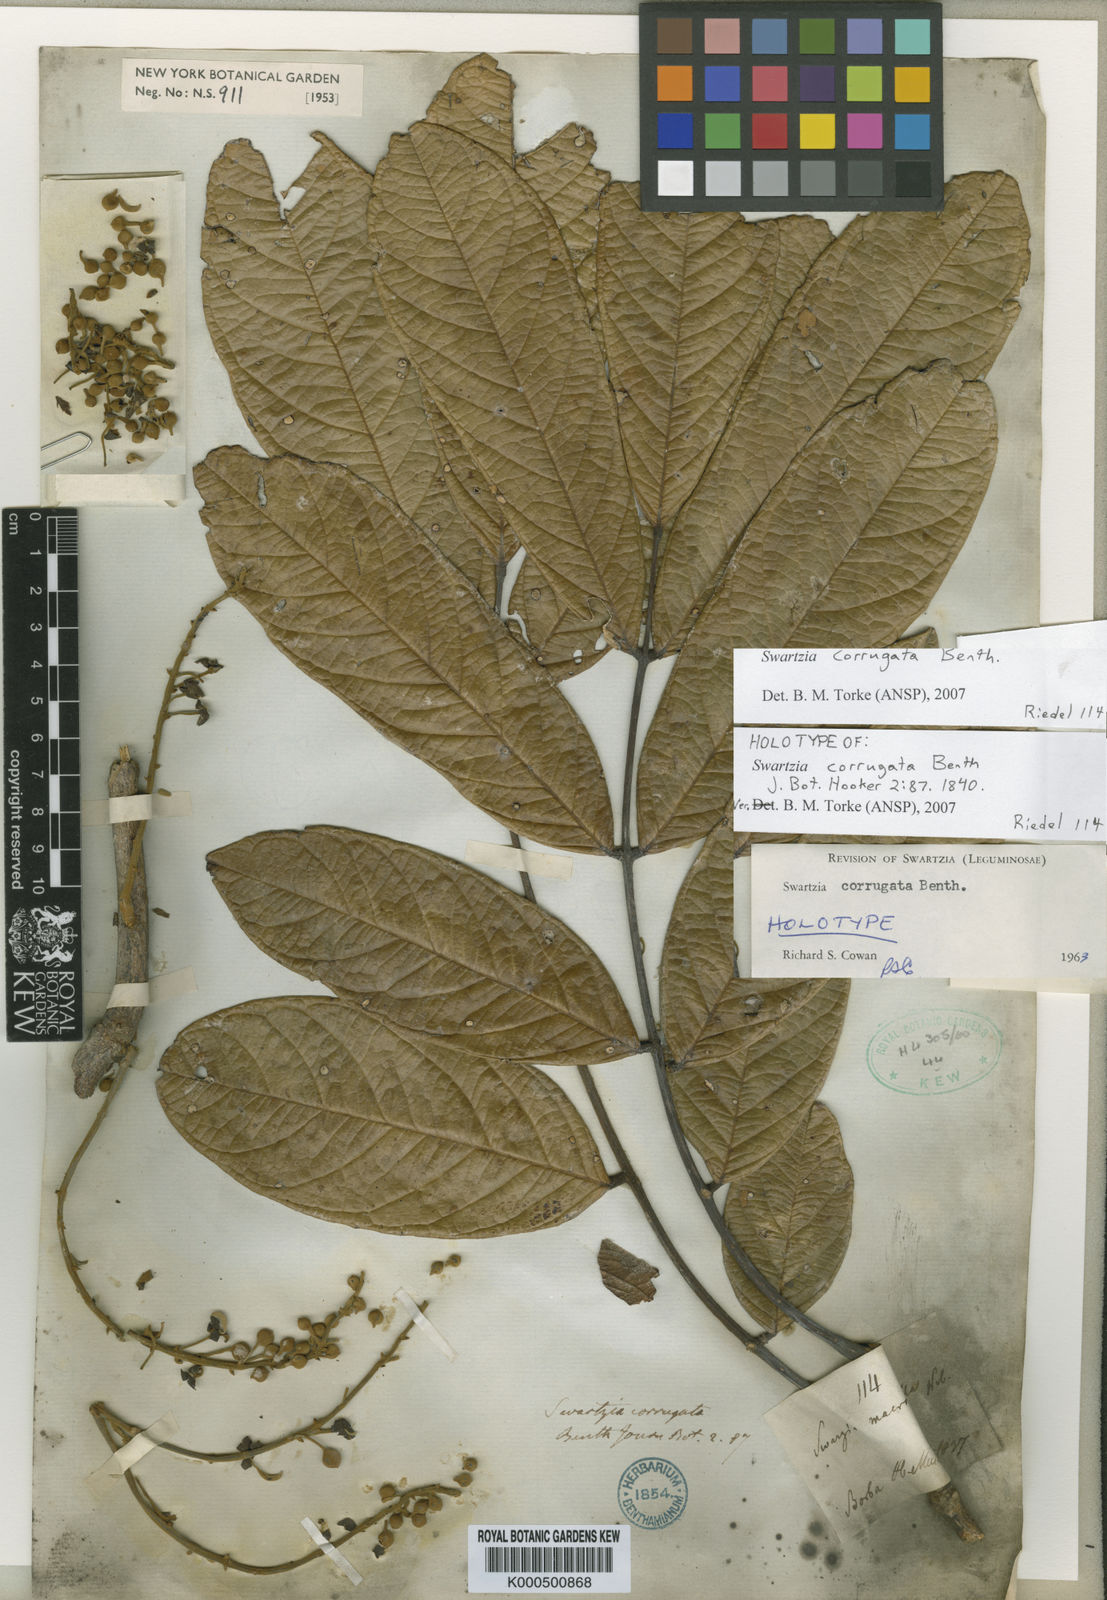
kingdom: Plantae
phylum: Tracheophyta
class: Magnoliopsida
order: Fabales
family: Fabaceae
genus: Swartzia
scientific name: Swartzia corrugata
